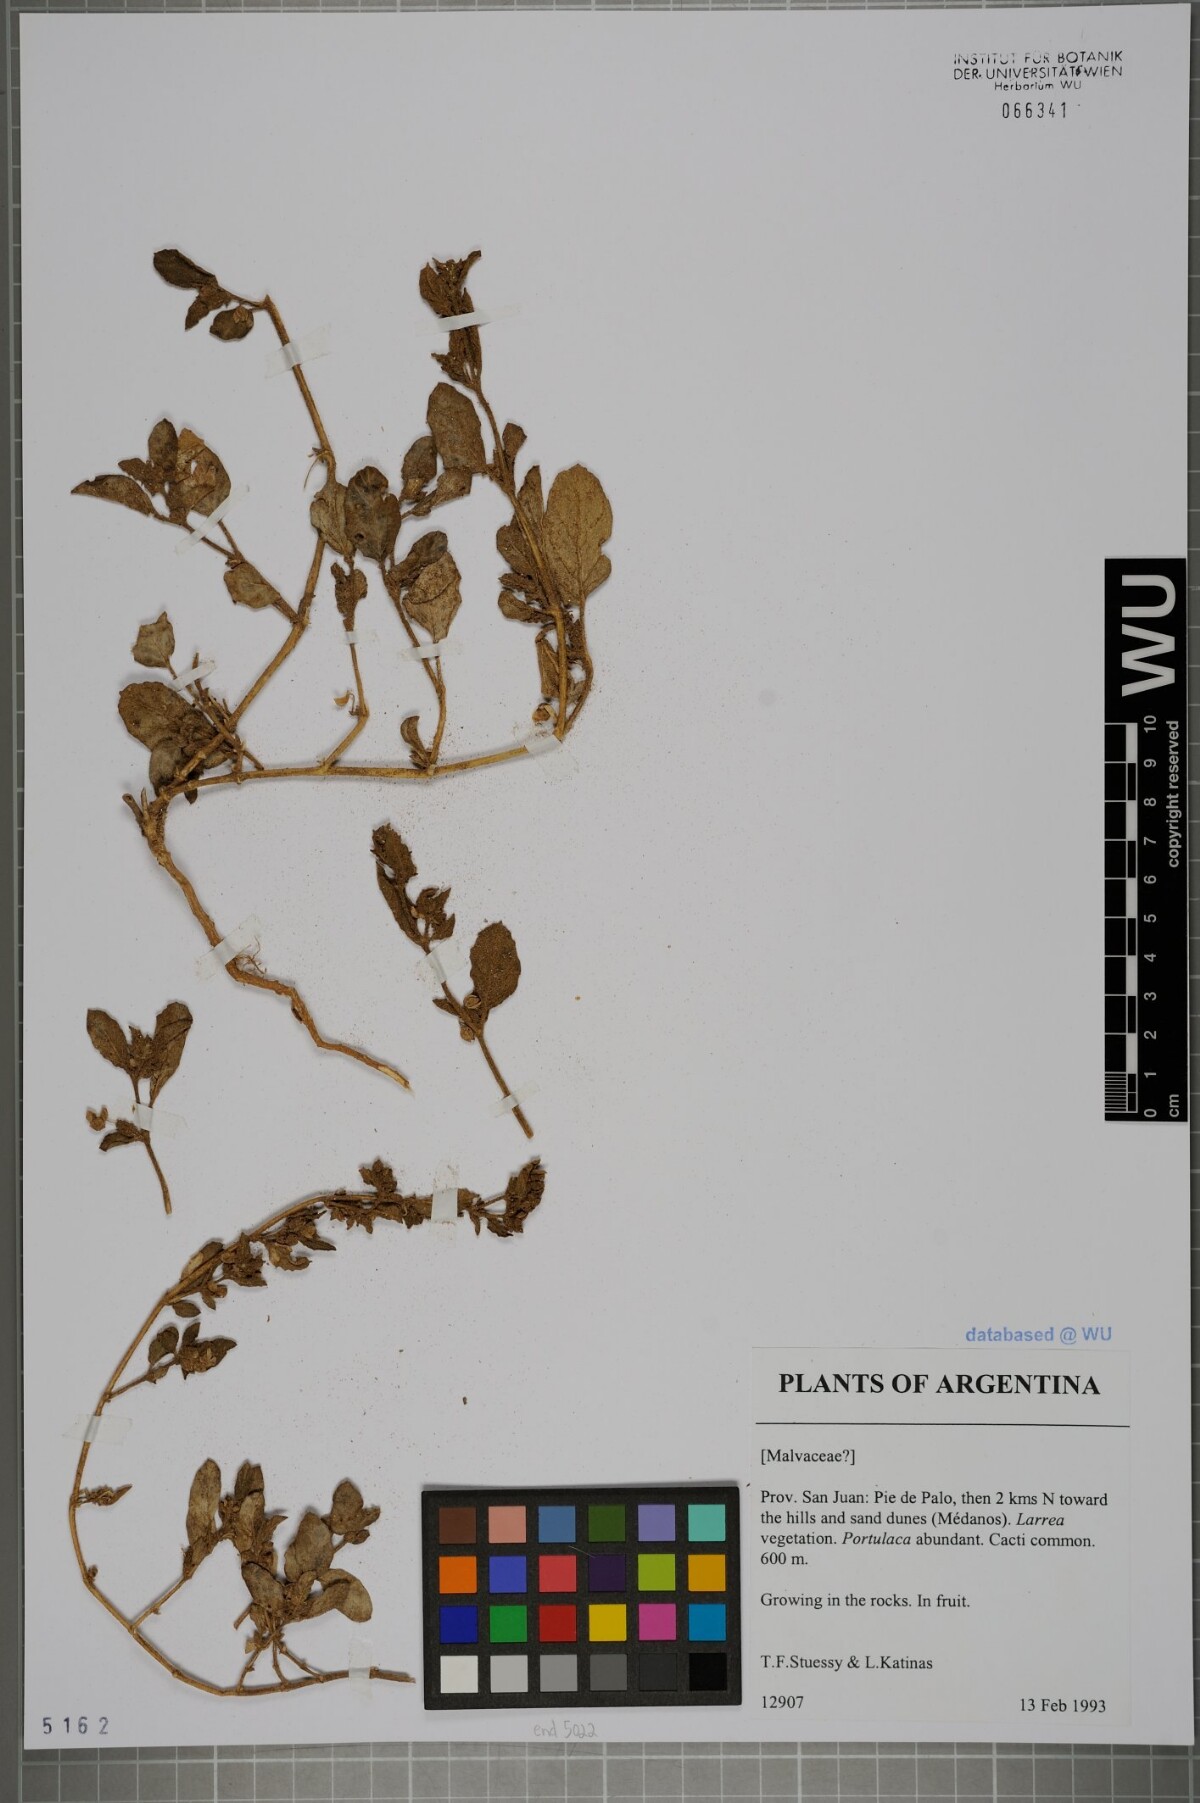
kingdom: Plantae
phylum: Tracheophyta
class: Magnoliopsida
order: Malvales
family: Malvaceae
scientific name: Malvaceae
